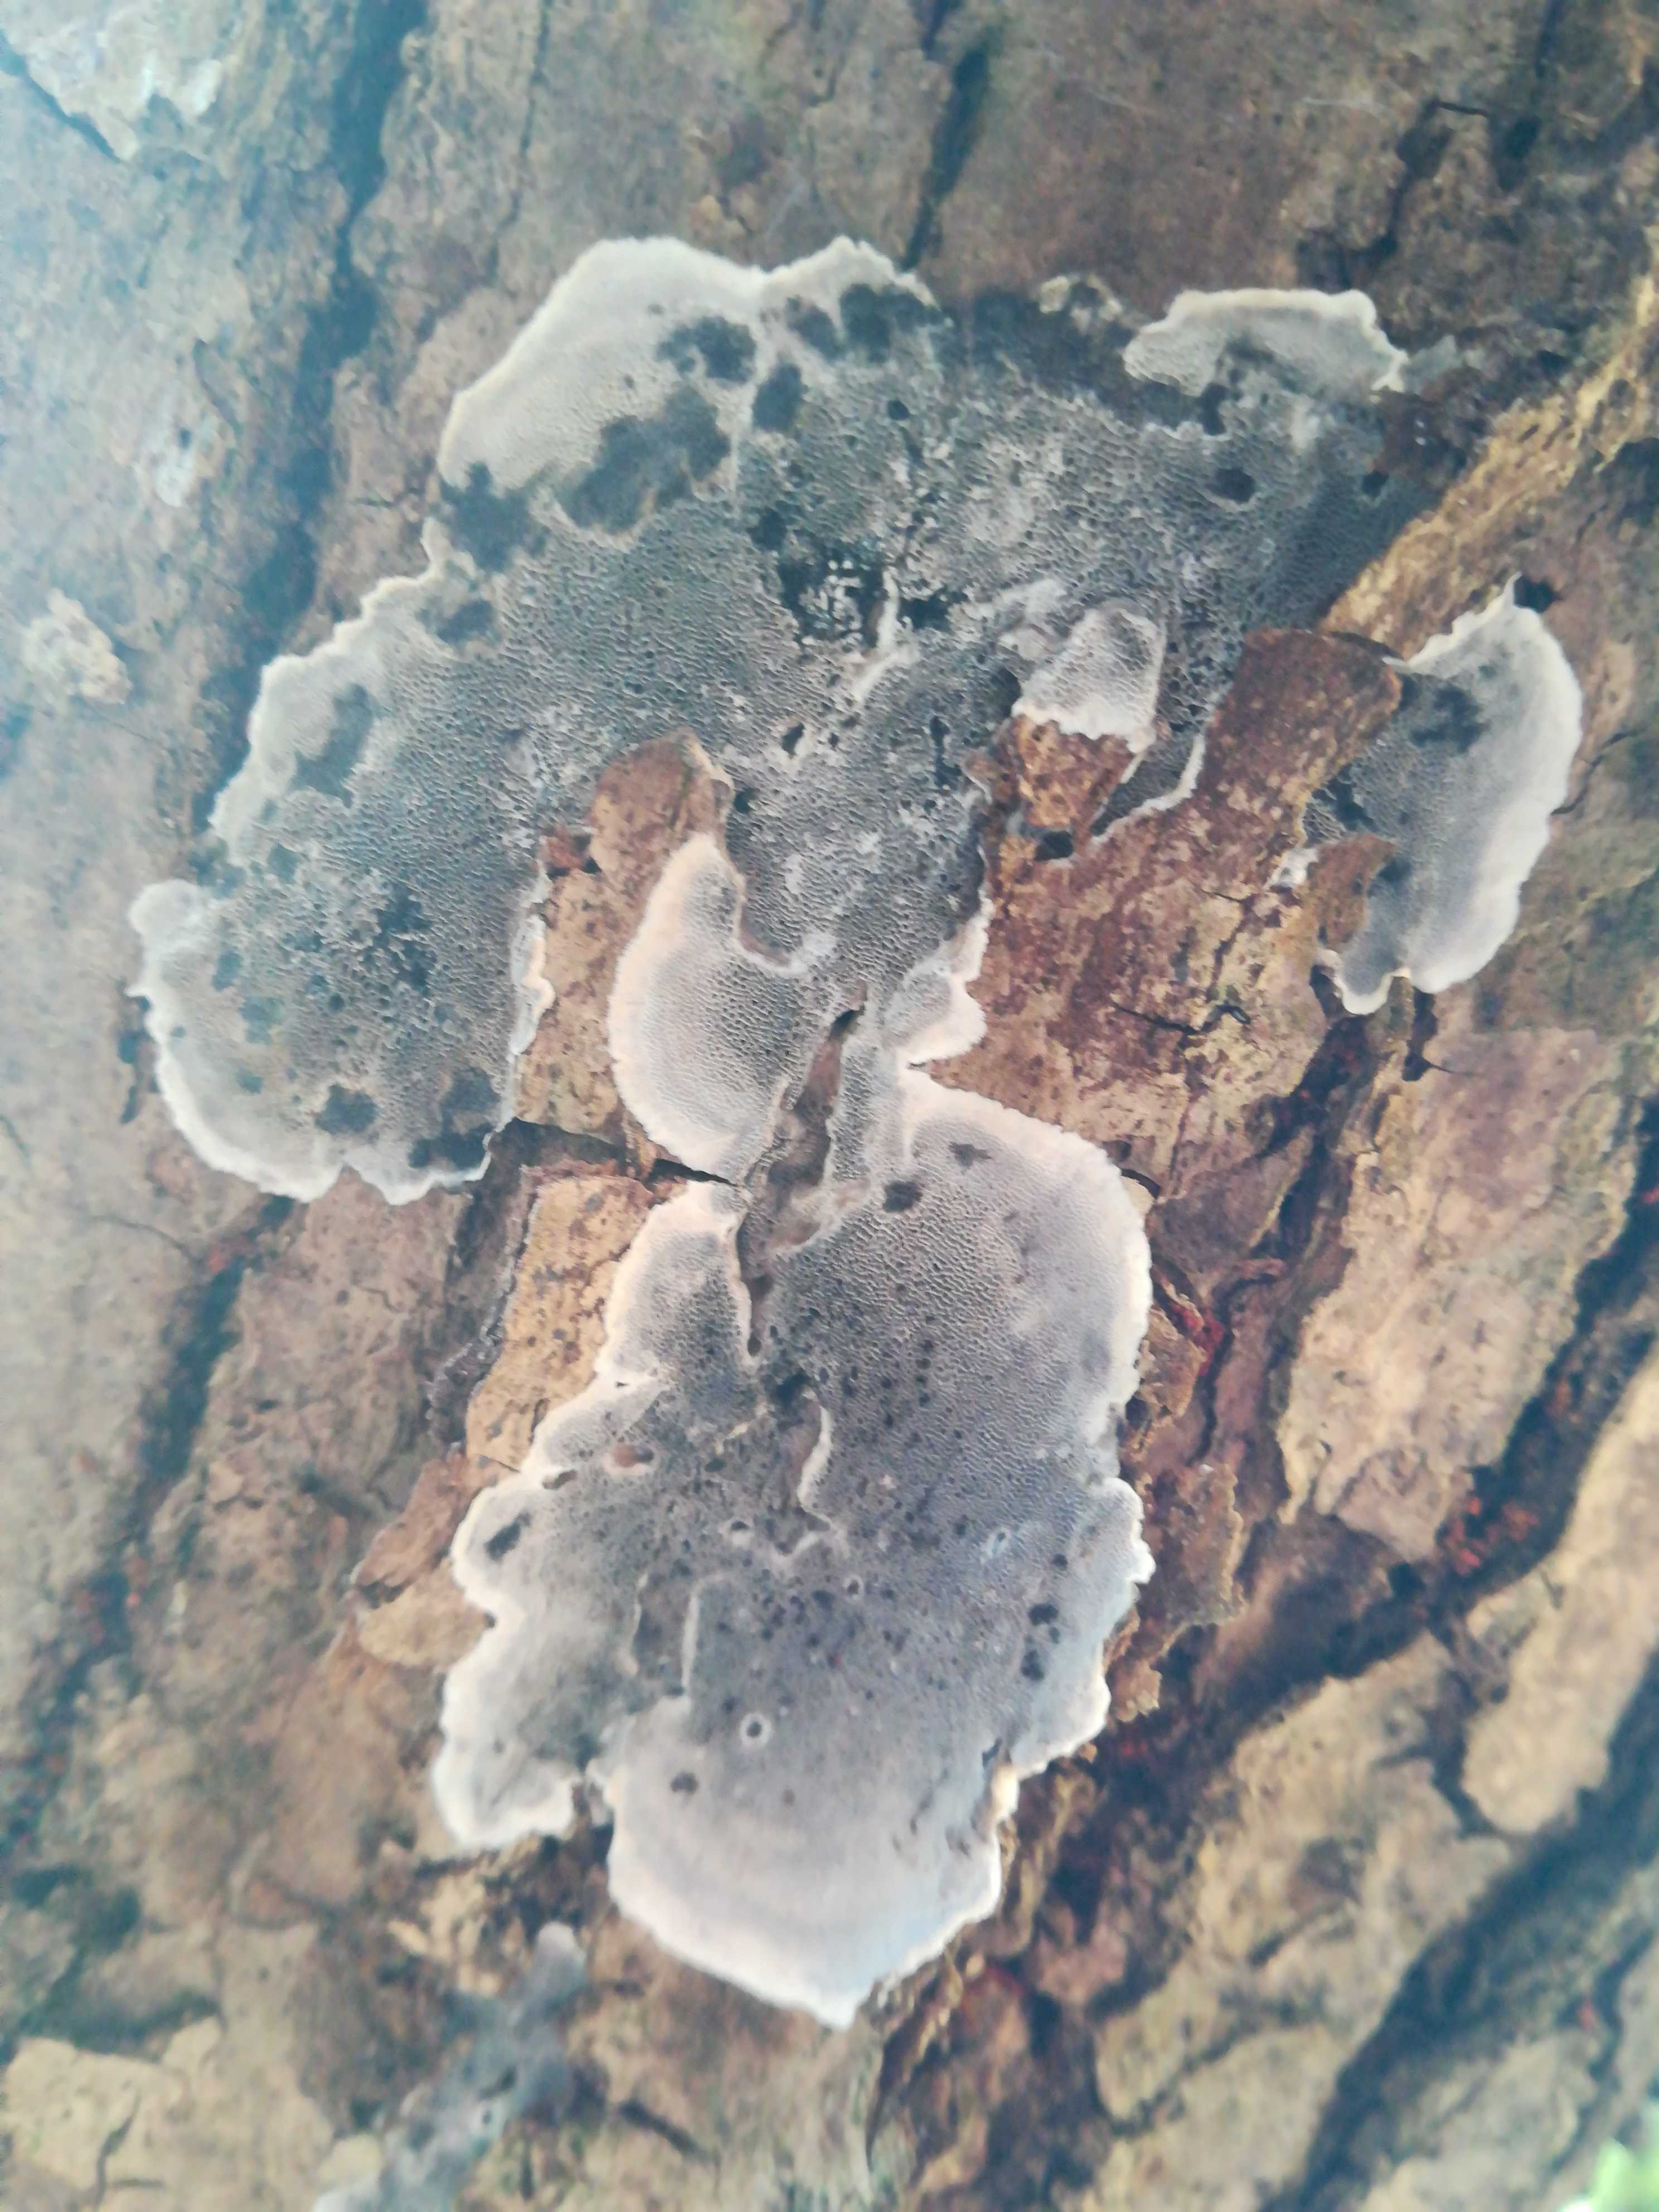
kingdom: Fungi
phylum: Basidiomycota
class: Agaricomycetes
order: Polyporales
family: Phanerochaetaceae
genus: Bjerkandera
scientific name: Bjerkandera adusta
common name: sveden sodporesvamp
